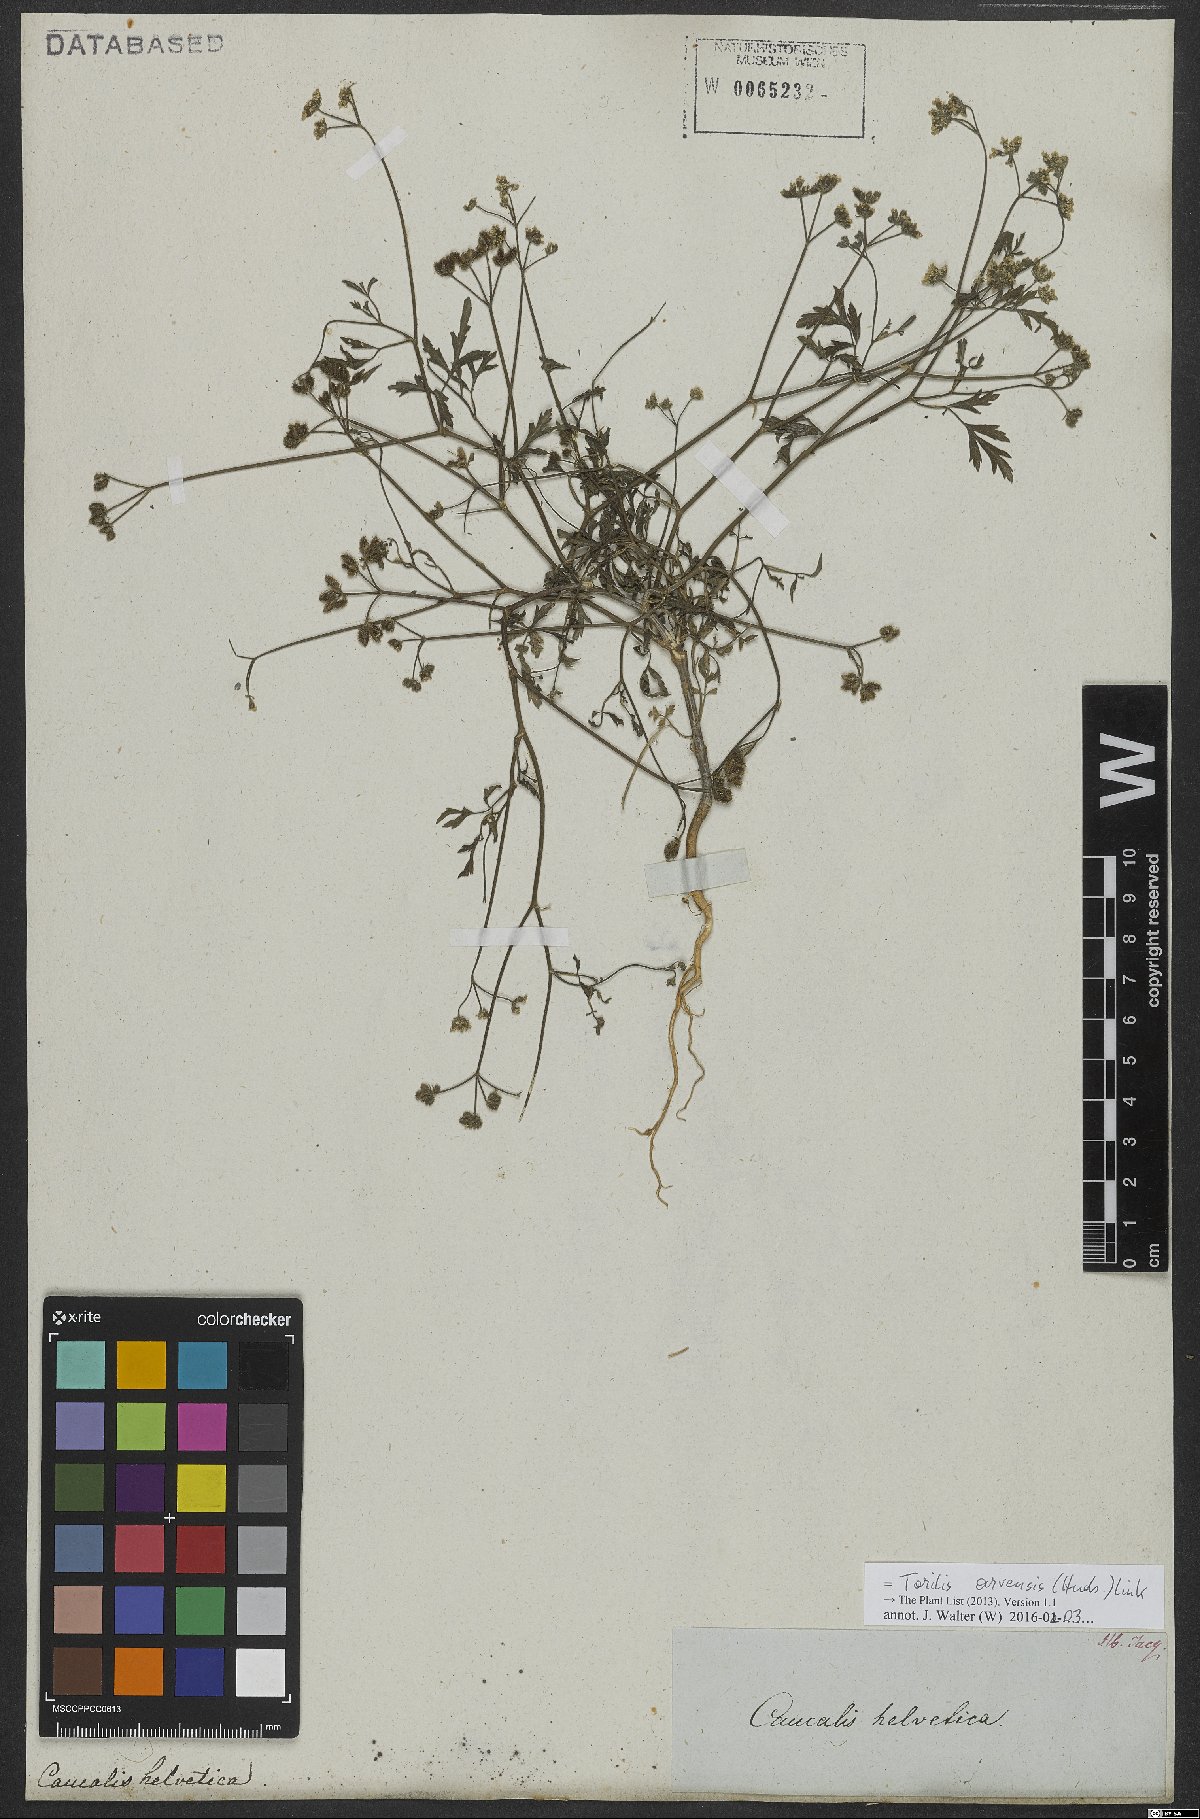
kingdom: Plantae
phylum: Tracheophyta
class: Magnoliopsida
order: Apiales
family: Apiaceae
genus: Torilis
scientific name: Torilis arvensis
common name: Spreading hedge-parsley
